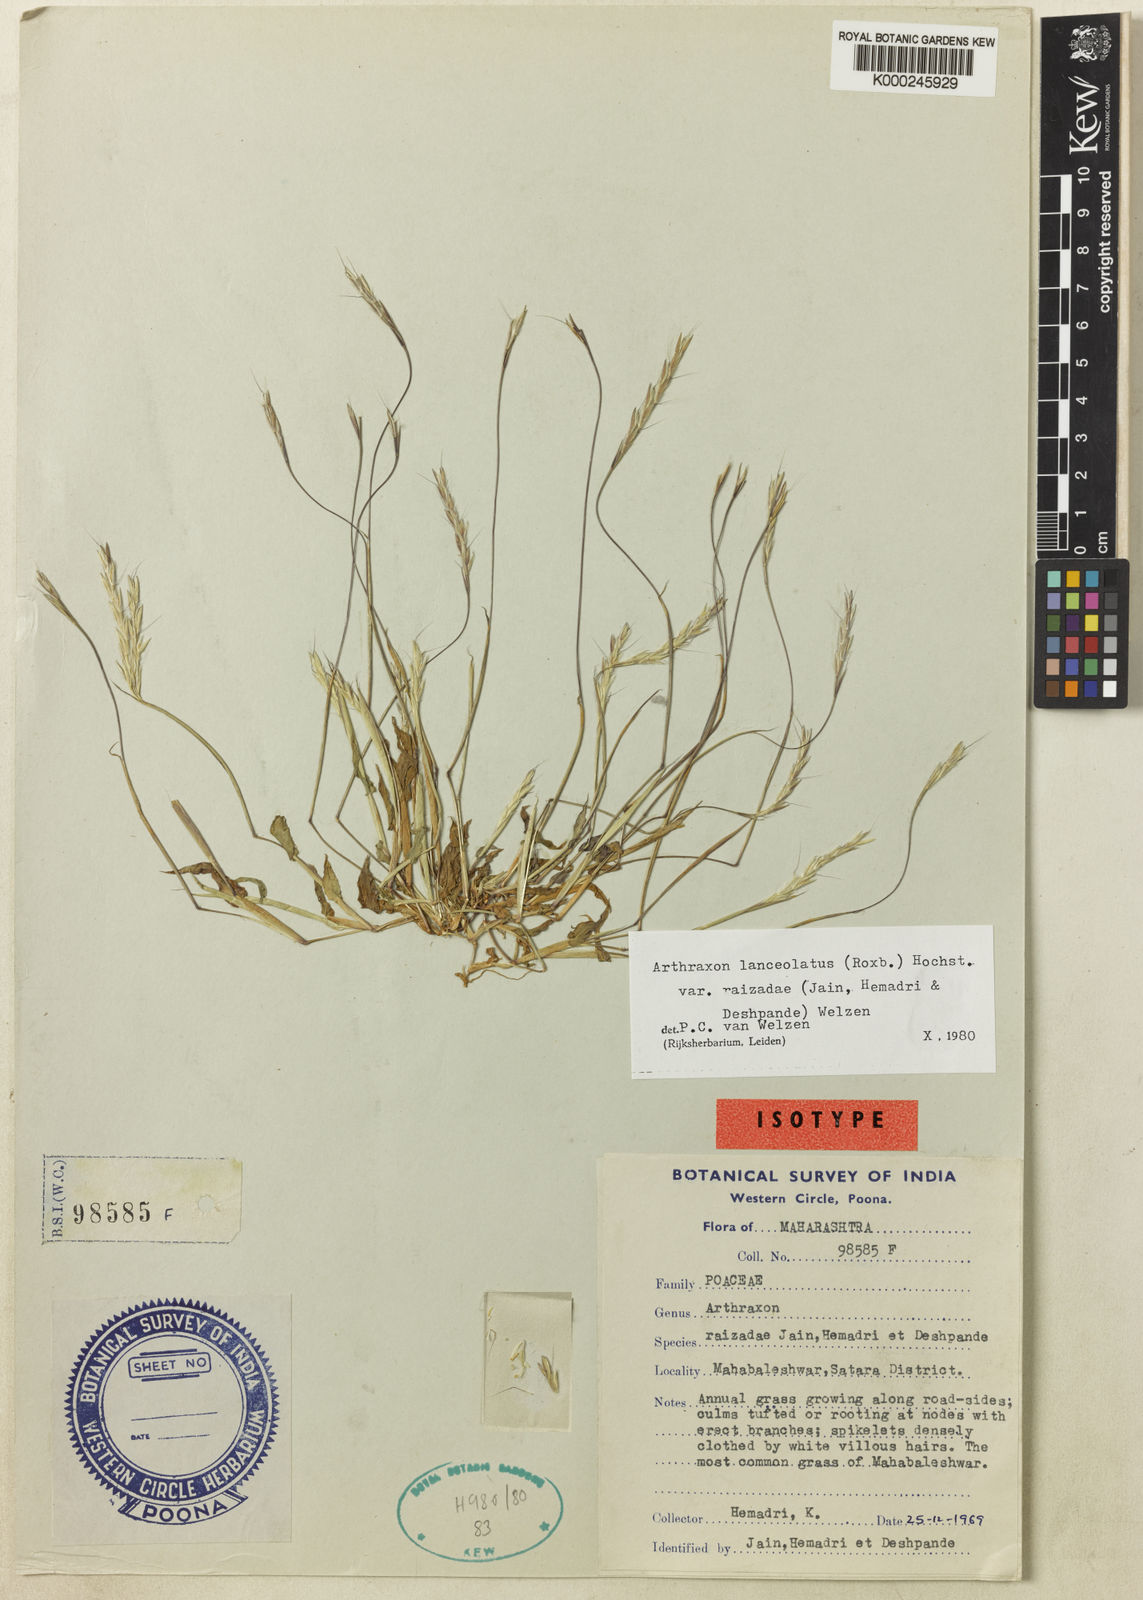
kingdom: Plantae
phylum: Tracheophyta
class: Liliopsida
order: Poales
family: Poaceae
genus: Arthraxon
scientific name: Arthraxon raizadae
